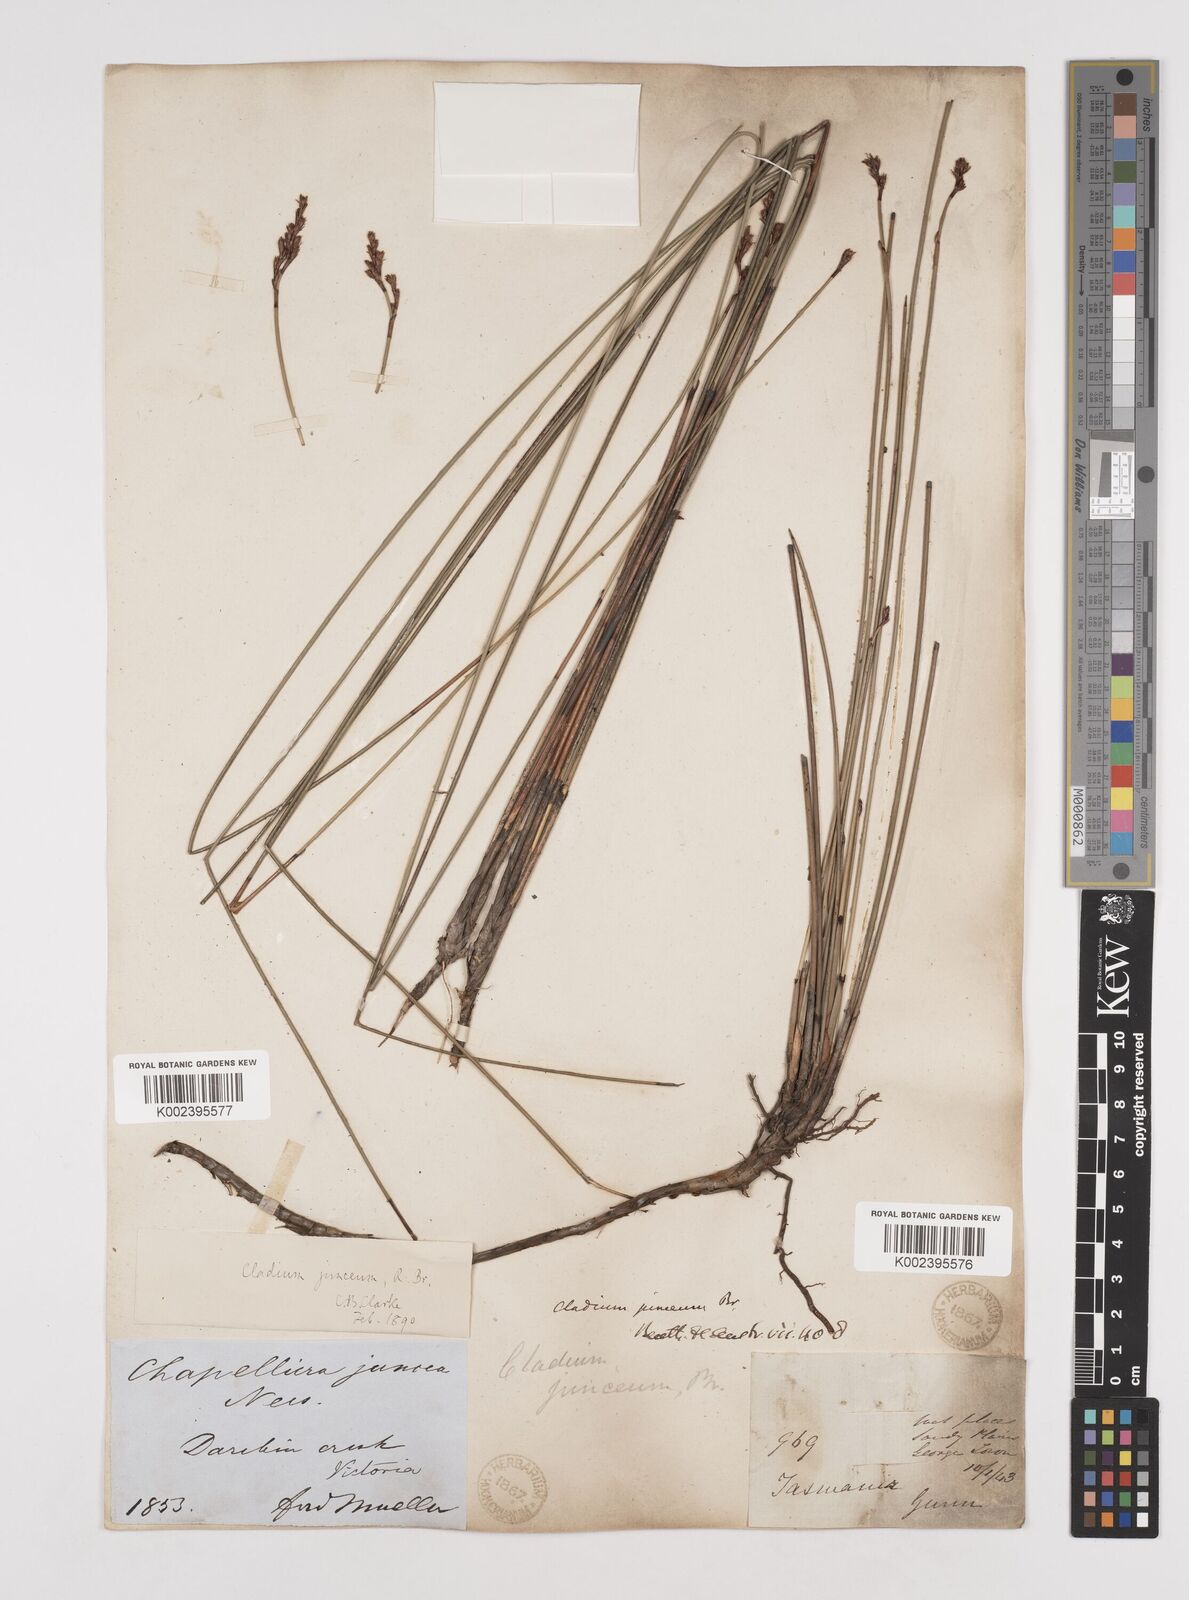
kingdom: Plantae
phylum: Tracheophyta
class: Liliopsida
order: Poales
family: Cyperaceae
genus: Machaerina
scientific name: Machaerina juncea
